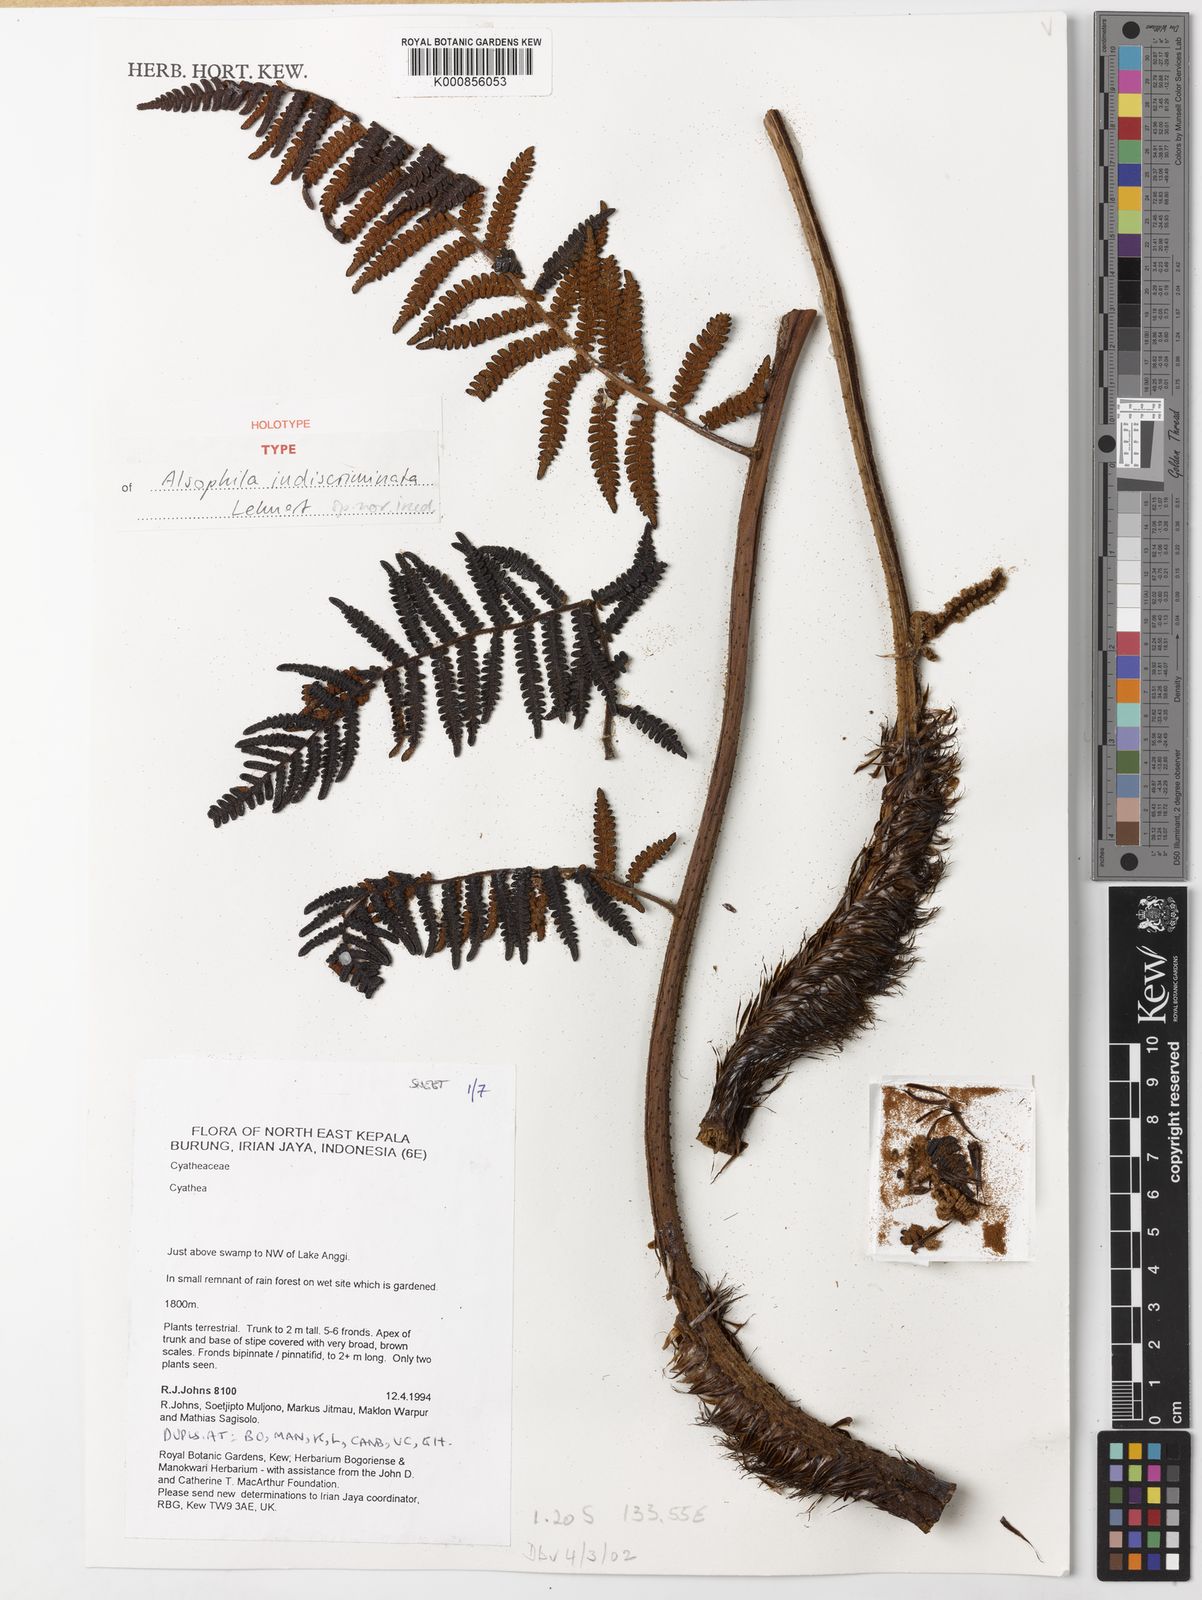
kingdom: Plantae
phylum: Tracheophyta
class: Polypodiopsida
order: Cyatheales
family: Cyatheaceae
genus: Alsophila
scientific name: Alsophila indiscriminata
